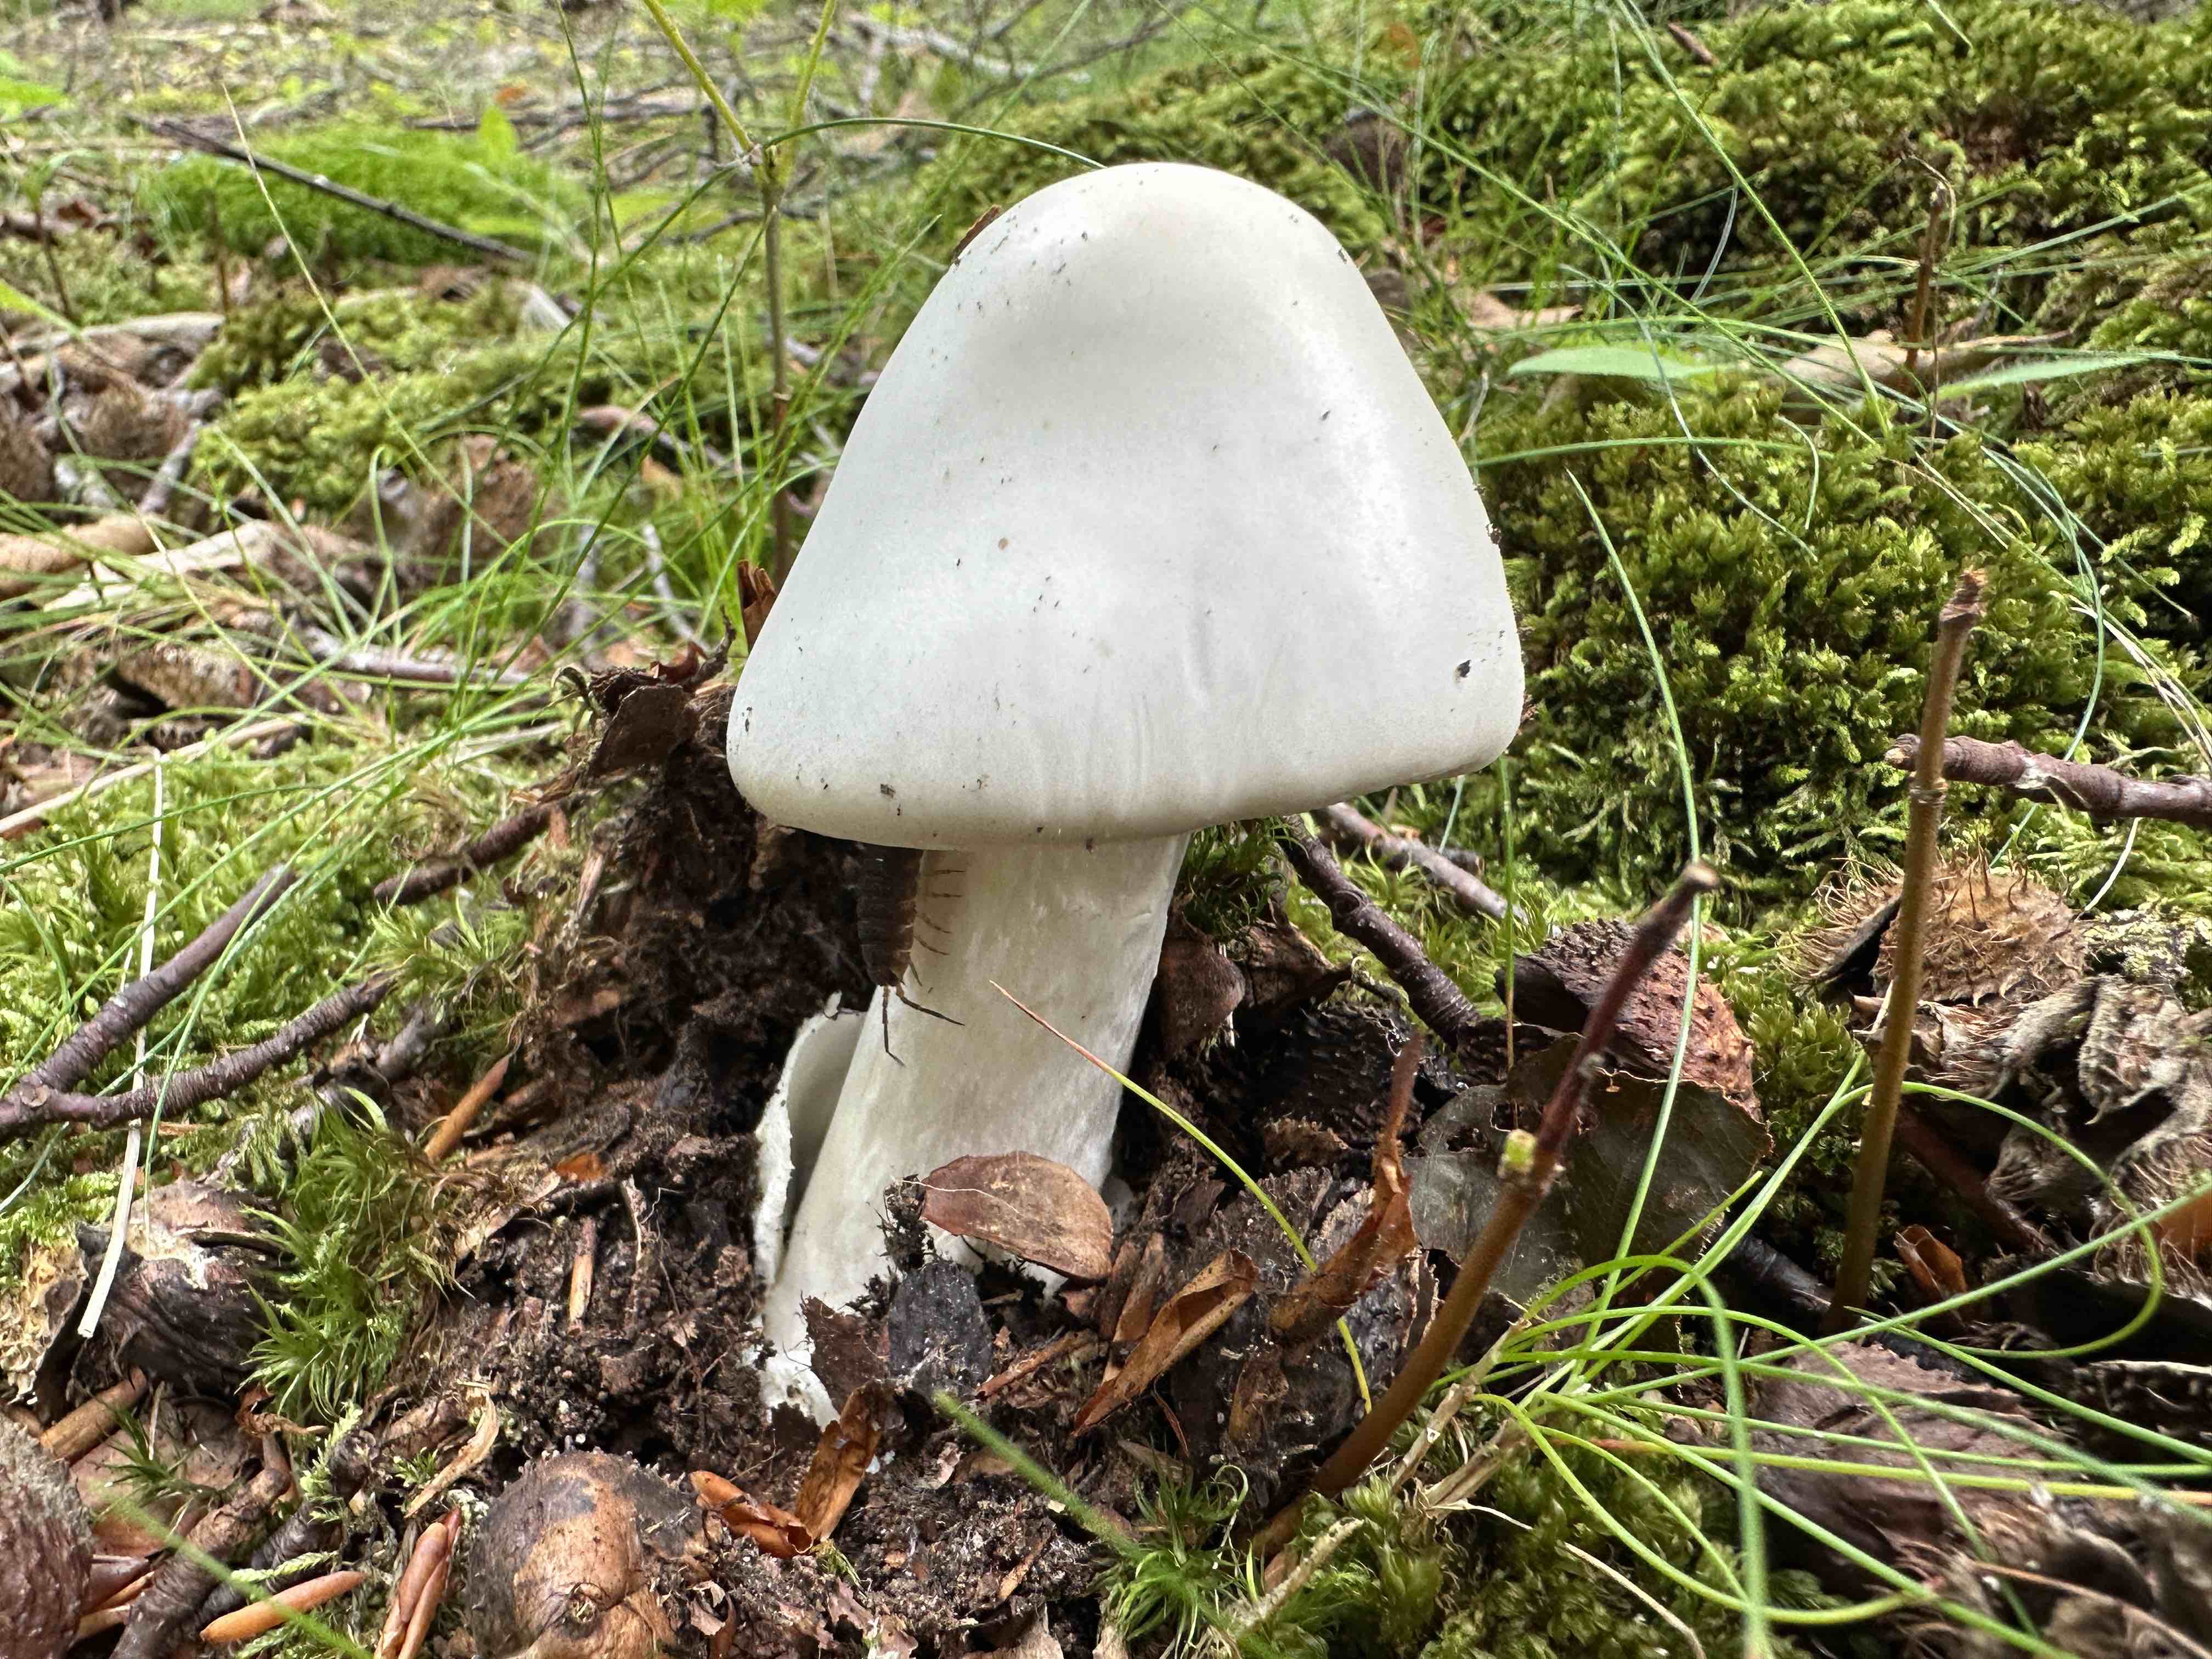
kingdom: Fungi
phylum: Basidiomycota
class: Agaricomycetes
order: Agaricales
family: Amanitaceae
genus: Amanita
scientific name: Amanita virosa
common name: snehvid fluesvamp
